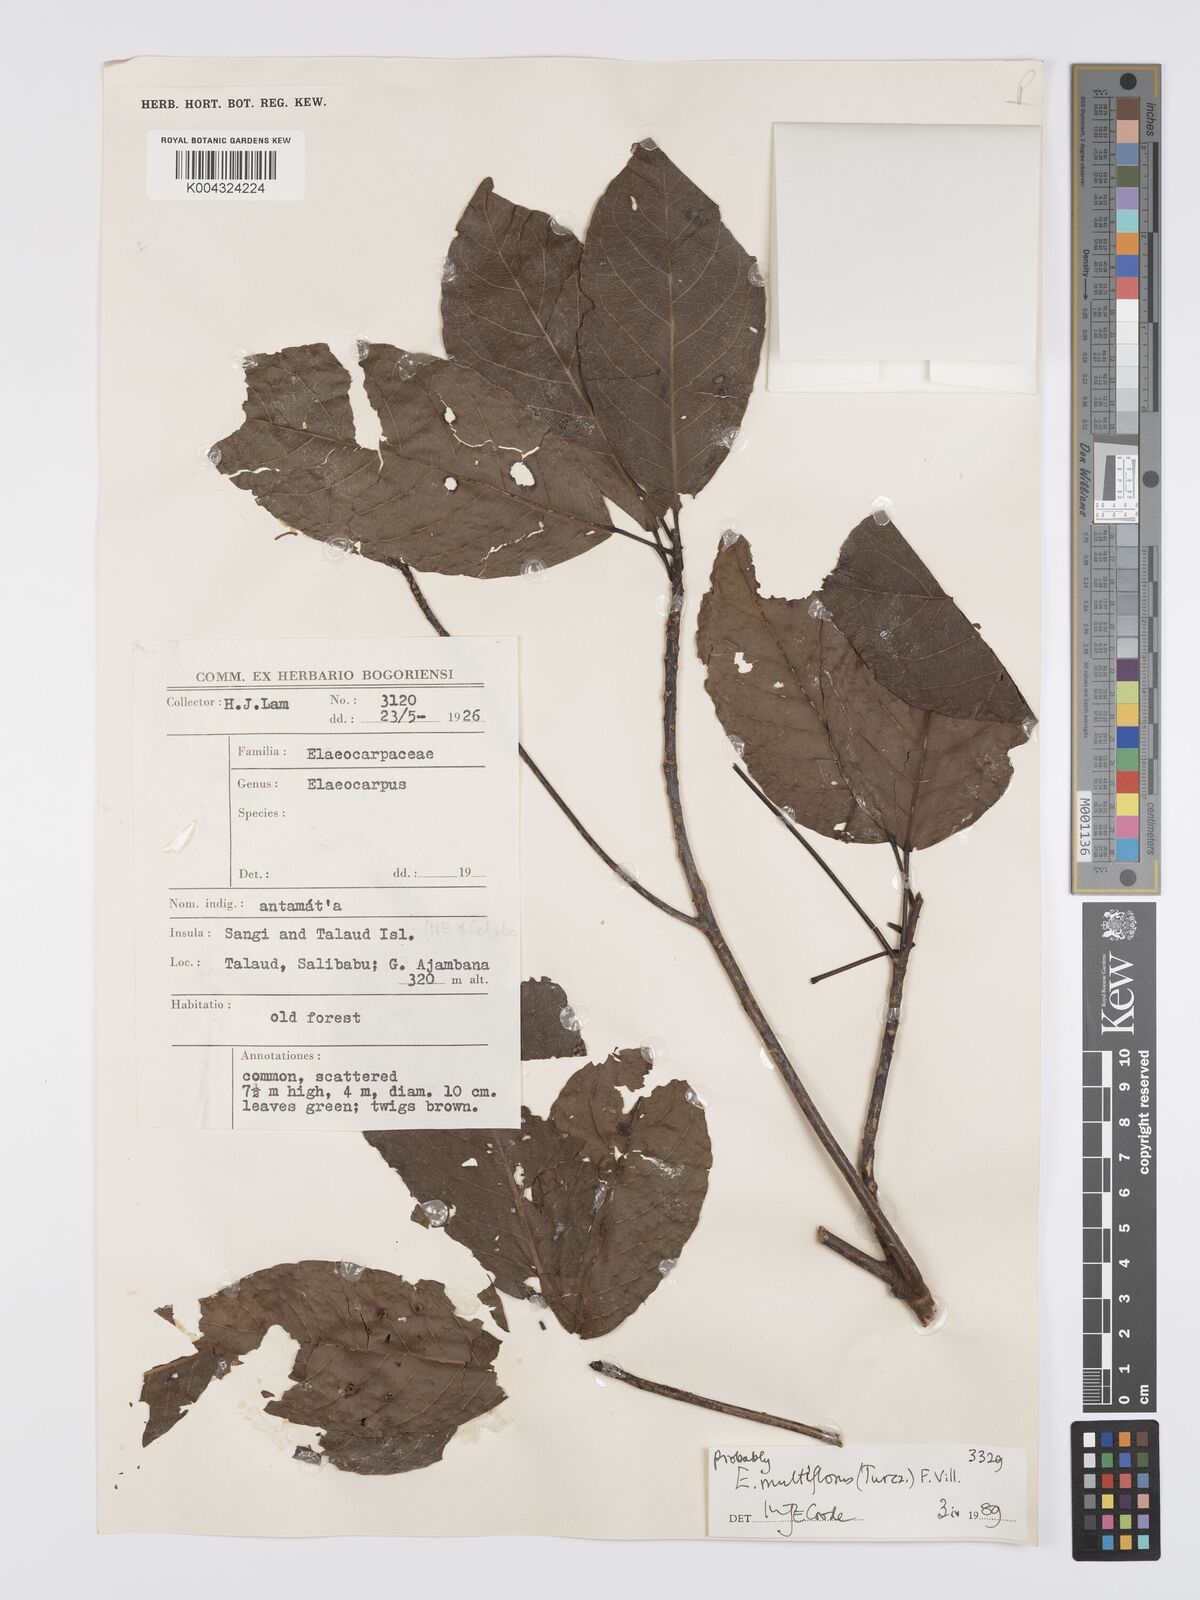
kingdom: Plantae
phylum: Tracheophyta
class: Magnoliopsida
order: Oxalidales
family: Elaeocarpaceae
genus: Elaeocarpus
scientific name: Elaeocarpus multiflorus
